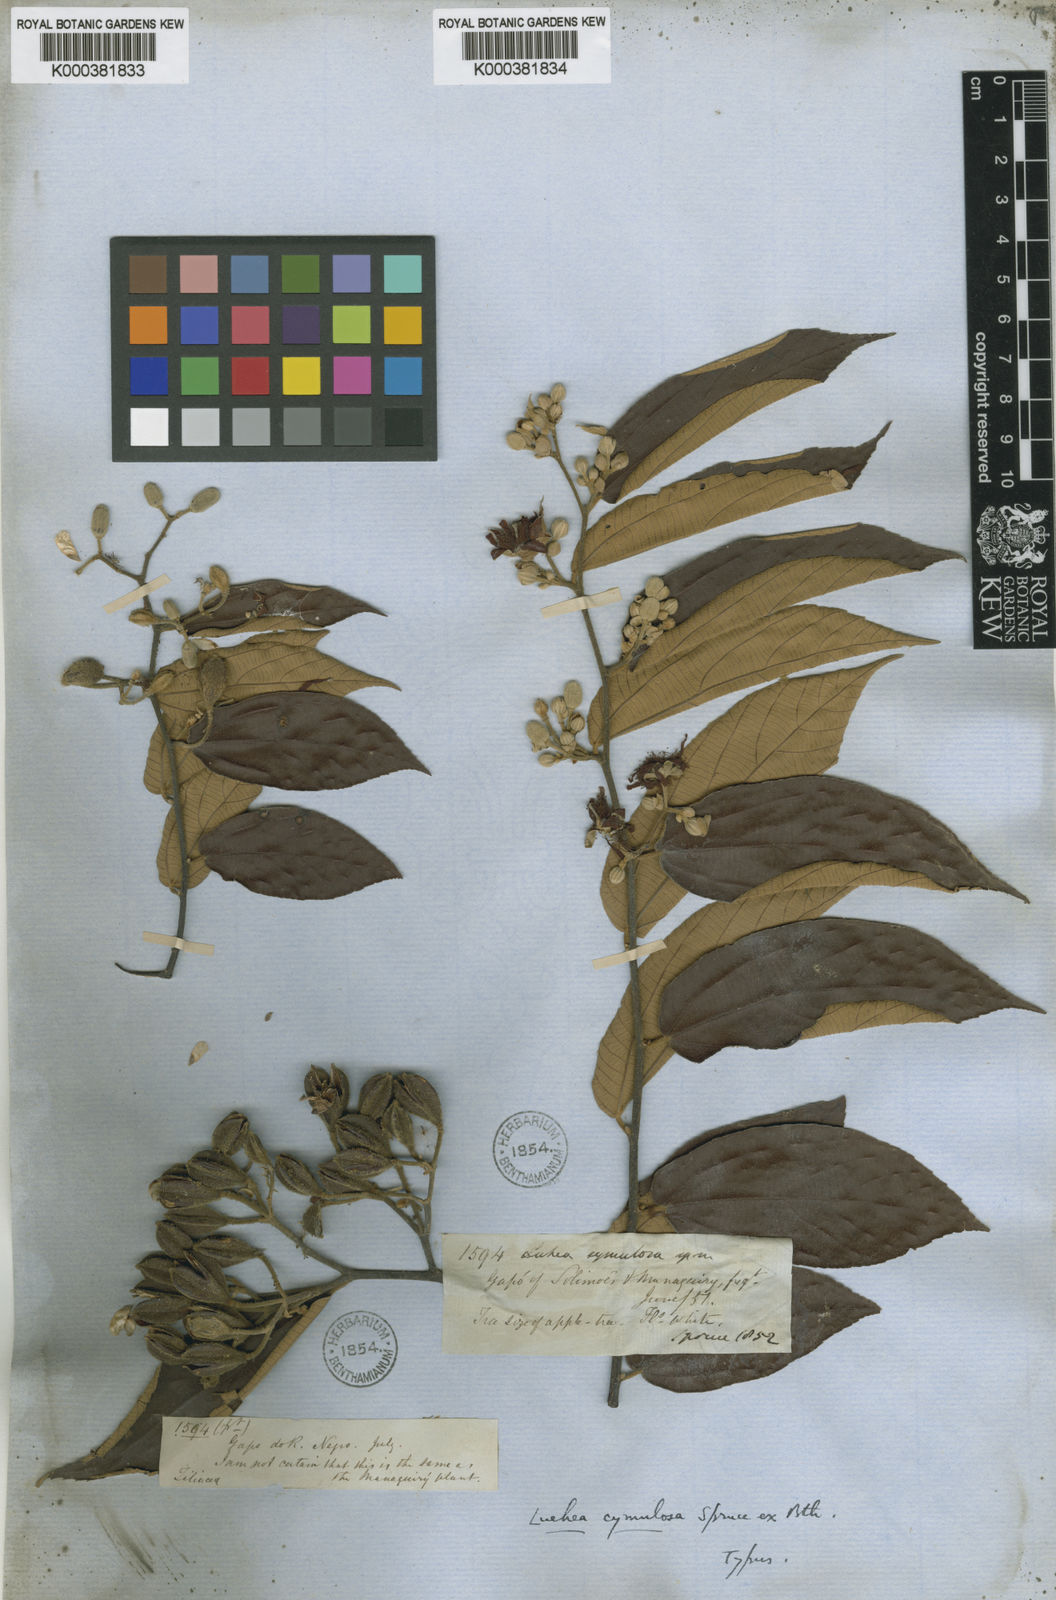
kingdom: Plantae
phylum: Tracheophyta
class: Magnoliopsida
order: Malvales
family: Malvaceae
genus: Luehea
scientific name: Luehea cymulosa
